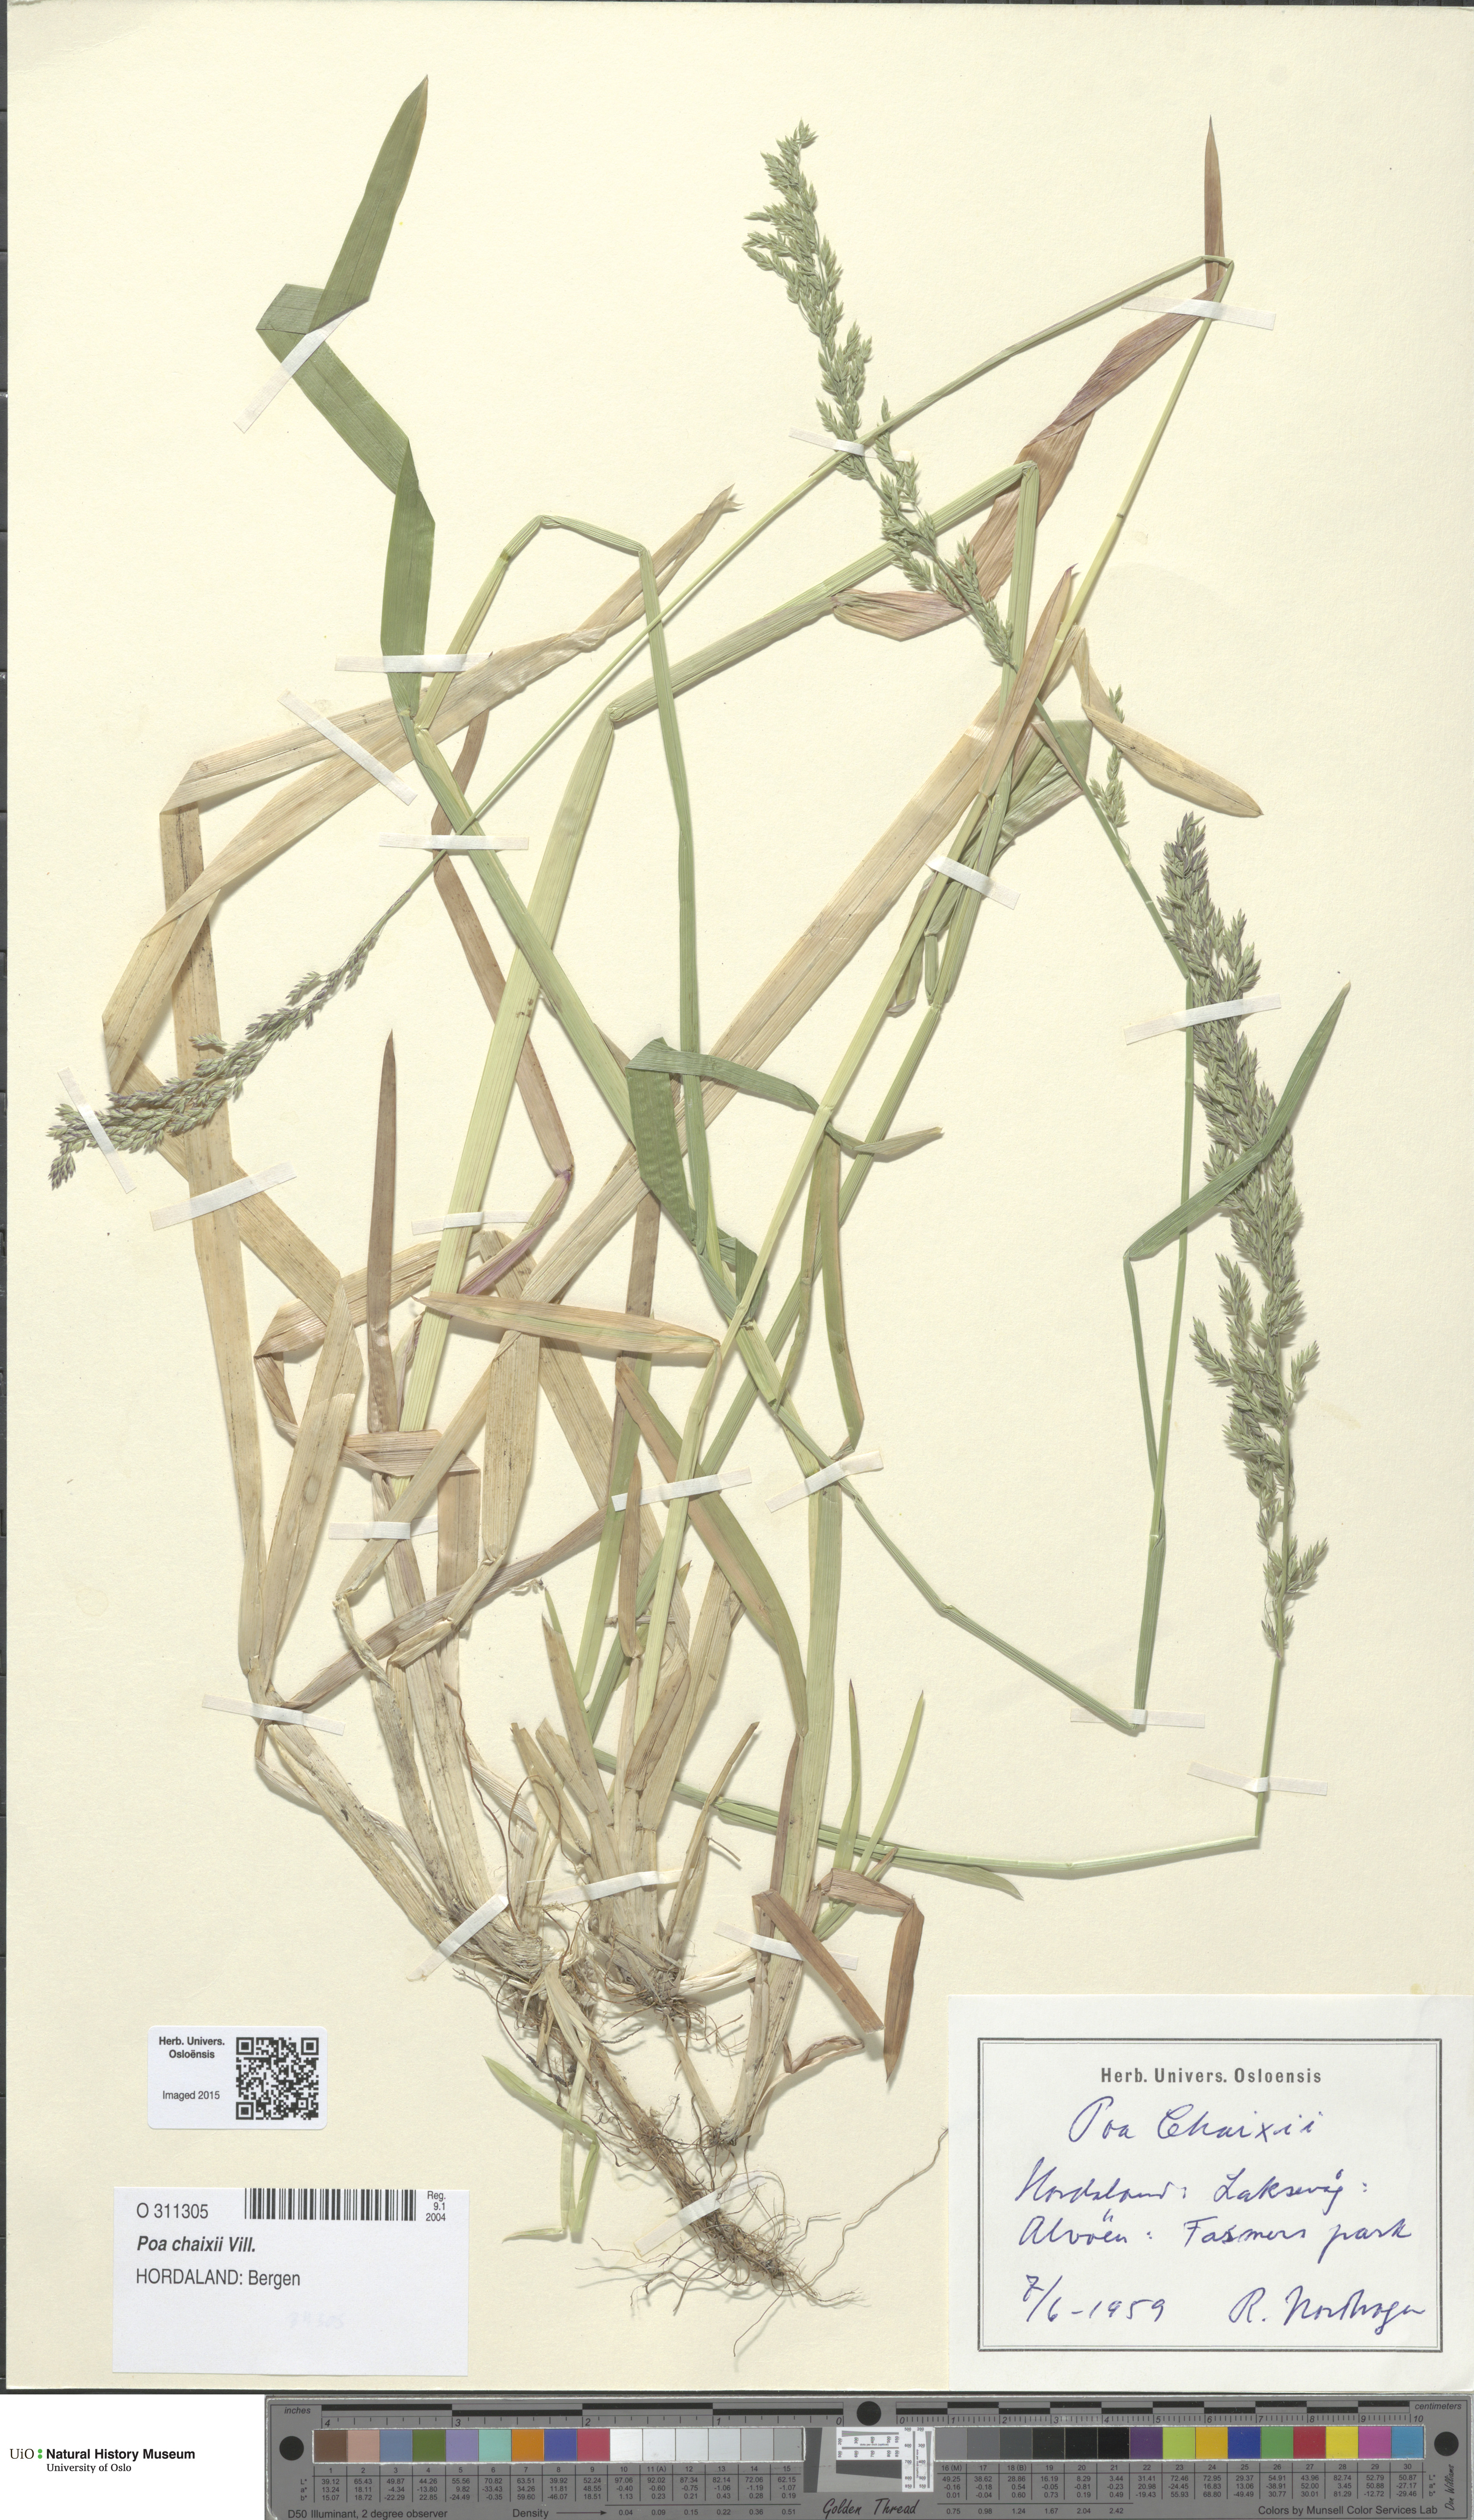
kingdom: Plantae
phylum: Tracheophyta
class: Liliopsida
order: Poales
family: Poaceae
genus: Poa
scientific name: Poa chaixii
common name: Broad-leaved meadow-grass
